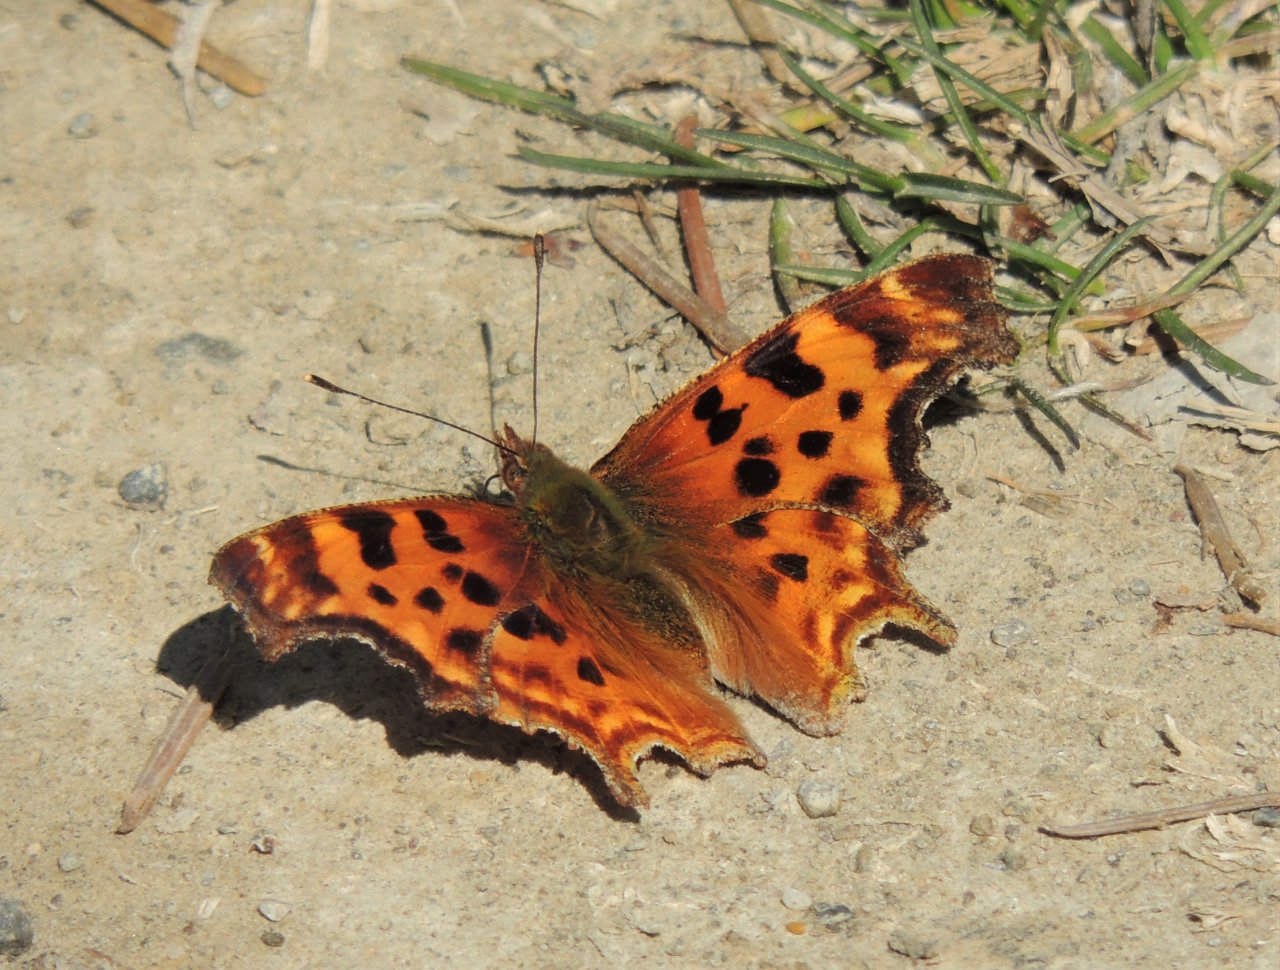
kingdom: Animalia
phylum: Arthropoda
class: Insecta
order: Lepidoptera
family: Nymphalidae
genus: Polygonia
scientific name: Polygonia satyrus
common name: Satyr Comma
